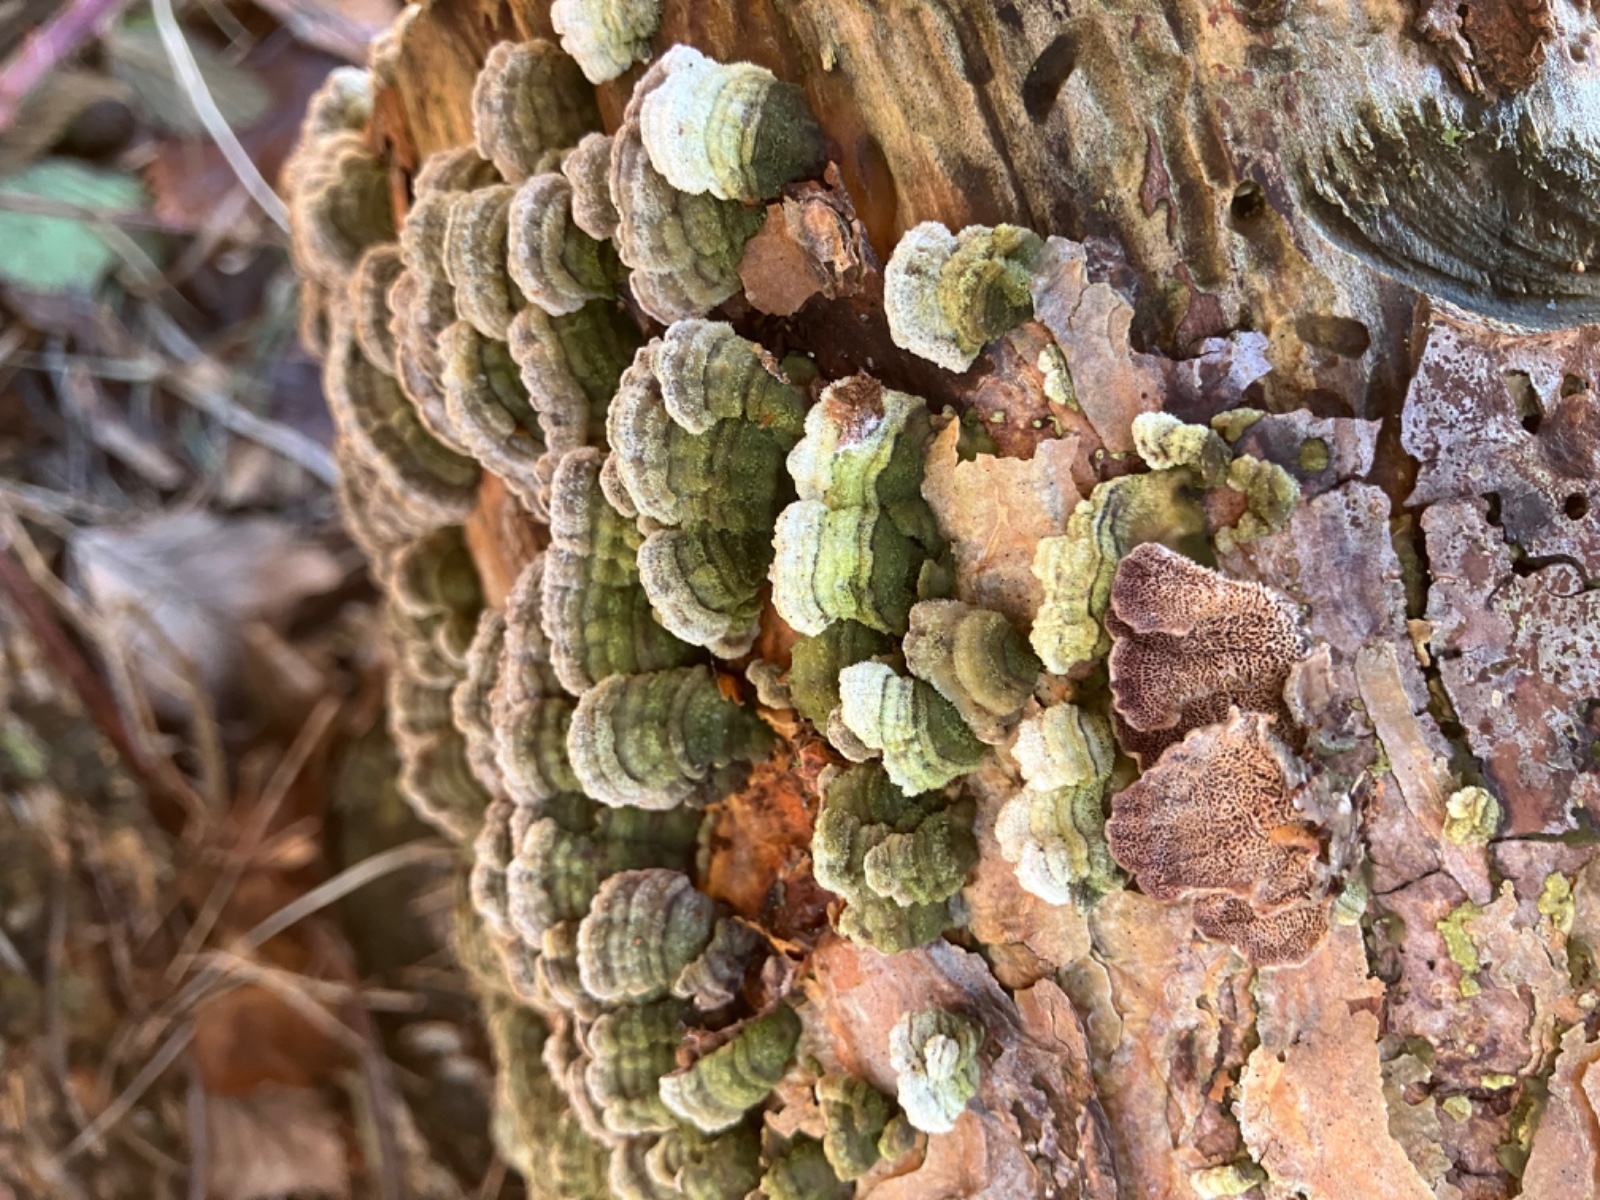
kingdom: Fungi
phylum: Basidiomycota
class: Agaricomycetes
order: Hymenochaetales
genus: Trichaptum
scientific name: Trichaptum fuscoviolaceum
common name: tandet violporesvamp
